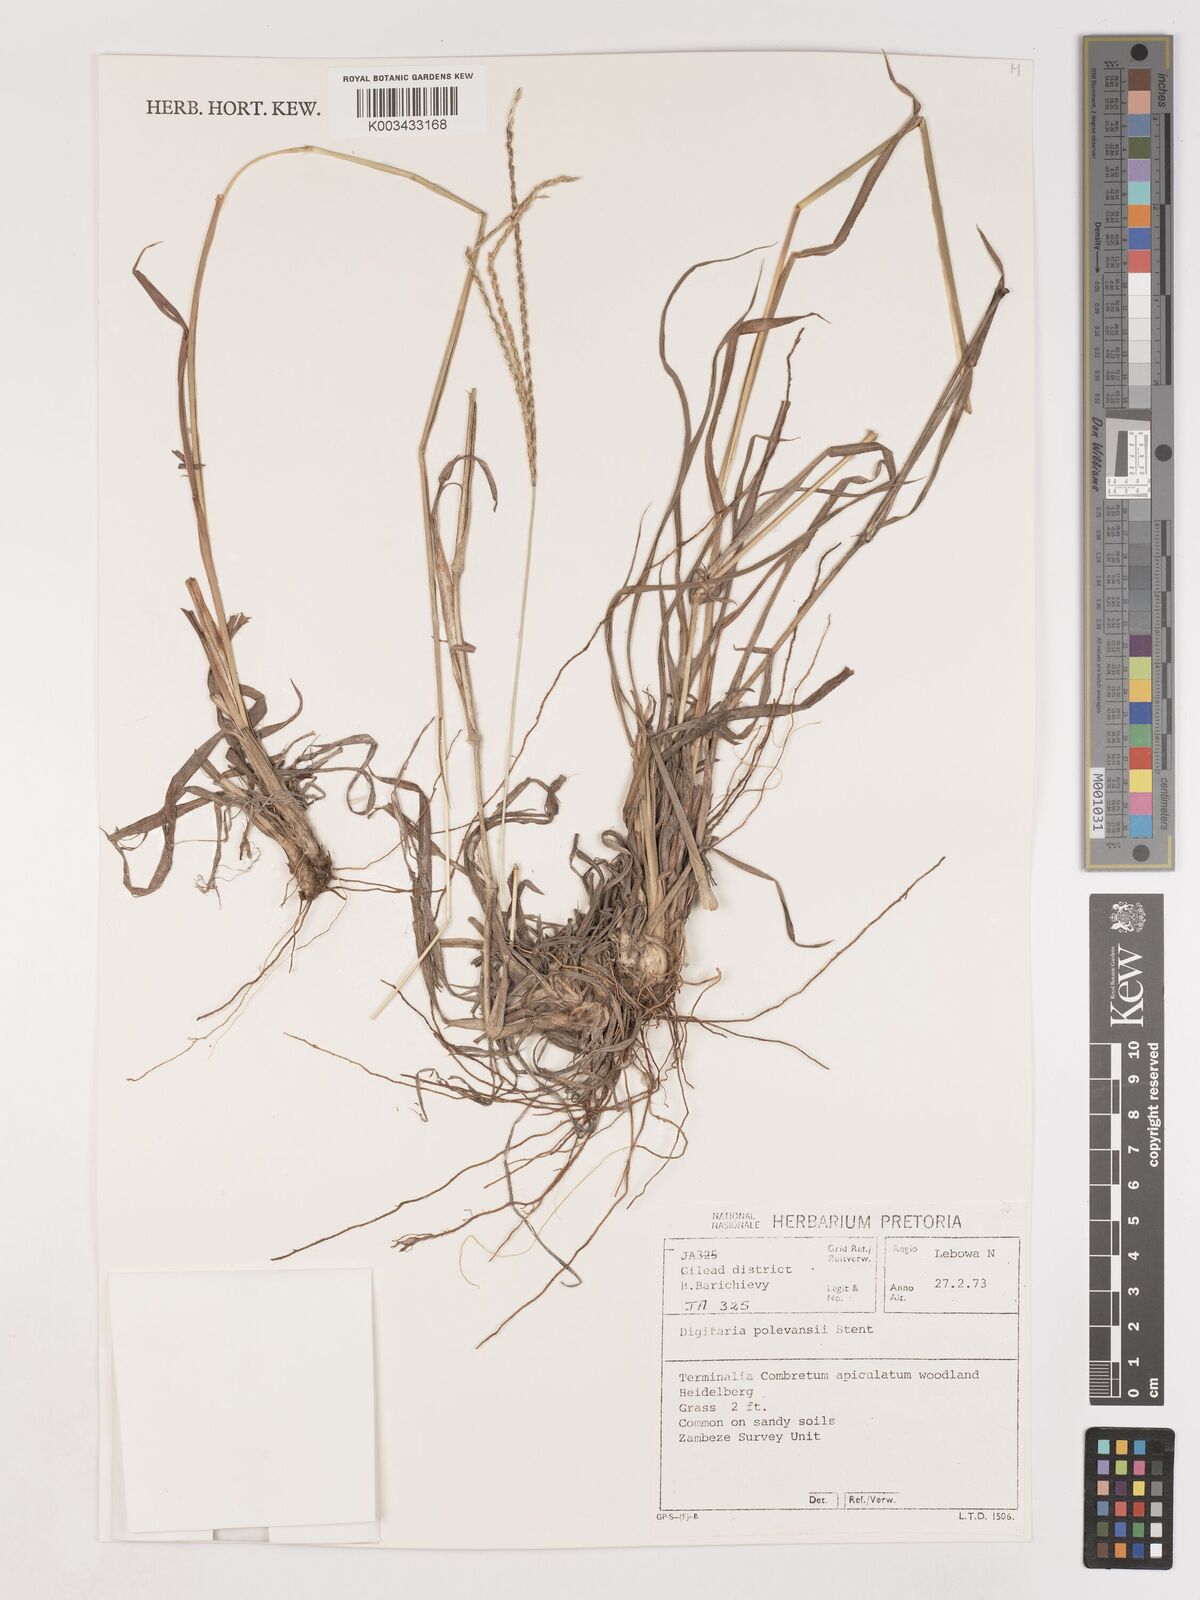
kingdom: Plantae
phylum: Tracheophyta
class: Liliopsida
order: Poales
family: Poaceae
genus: Digitaria
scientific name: Digitaria milanjiana
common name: Madagascar crabgrass
